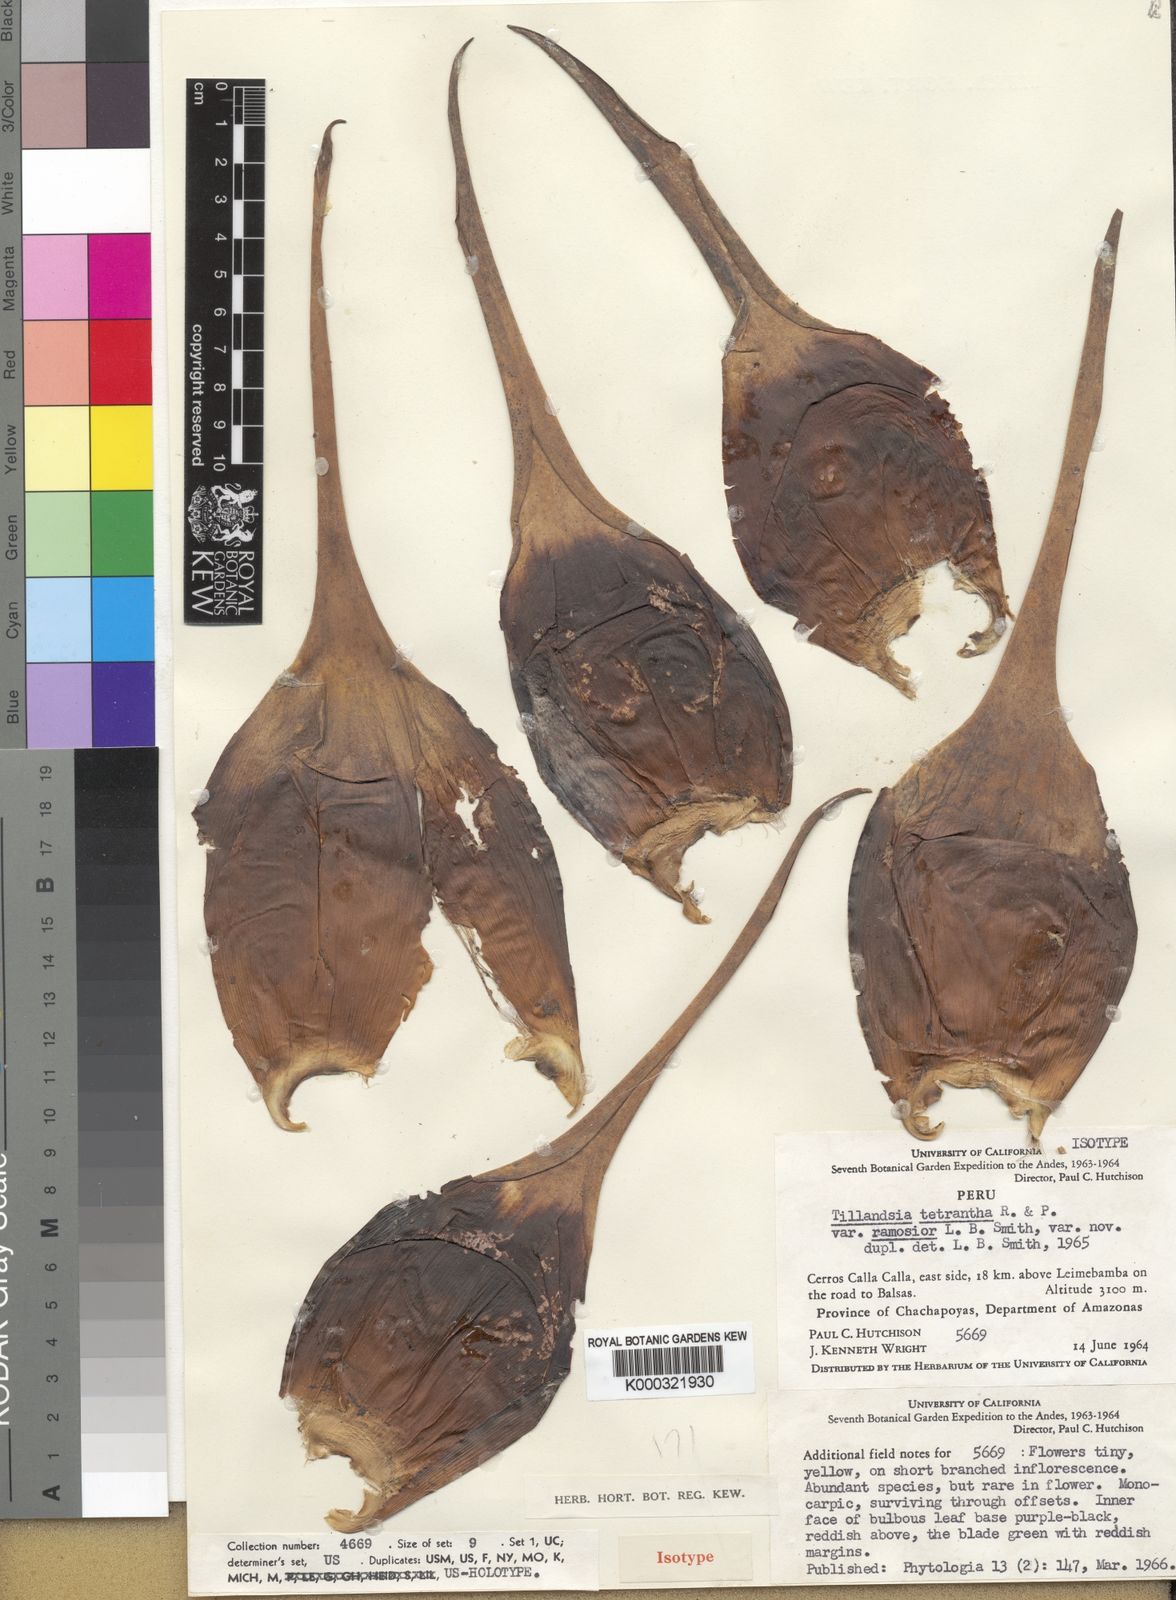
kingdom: Plantae
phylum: Tracheophyta
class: Liliopsida
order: Poales
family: Bromeliaceae
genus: Racinaea
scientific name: Racinaea tetrantha
